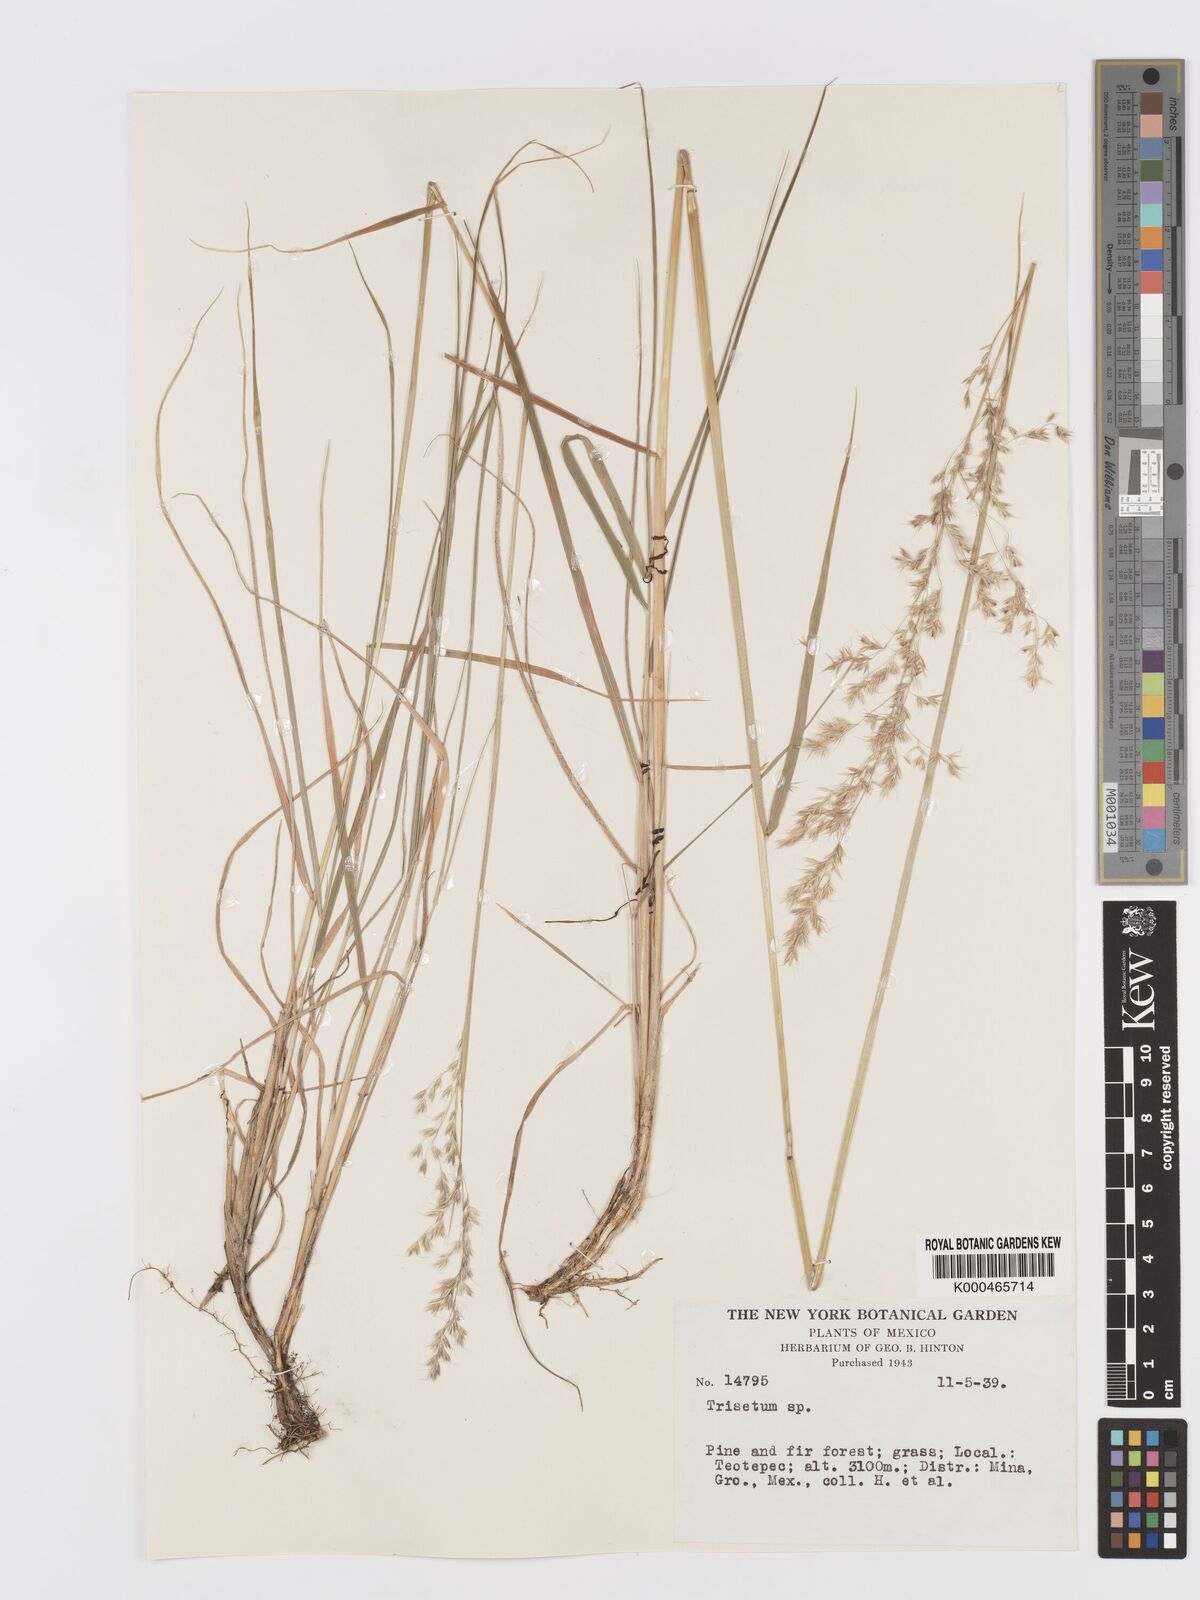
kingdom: Plantae
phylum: Tracheophyta
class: Liliopsida
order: Poales
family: Poaceae
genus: Trisetum
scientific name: Trisetum
